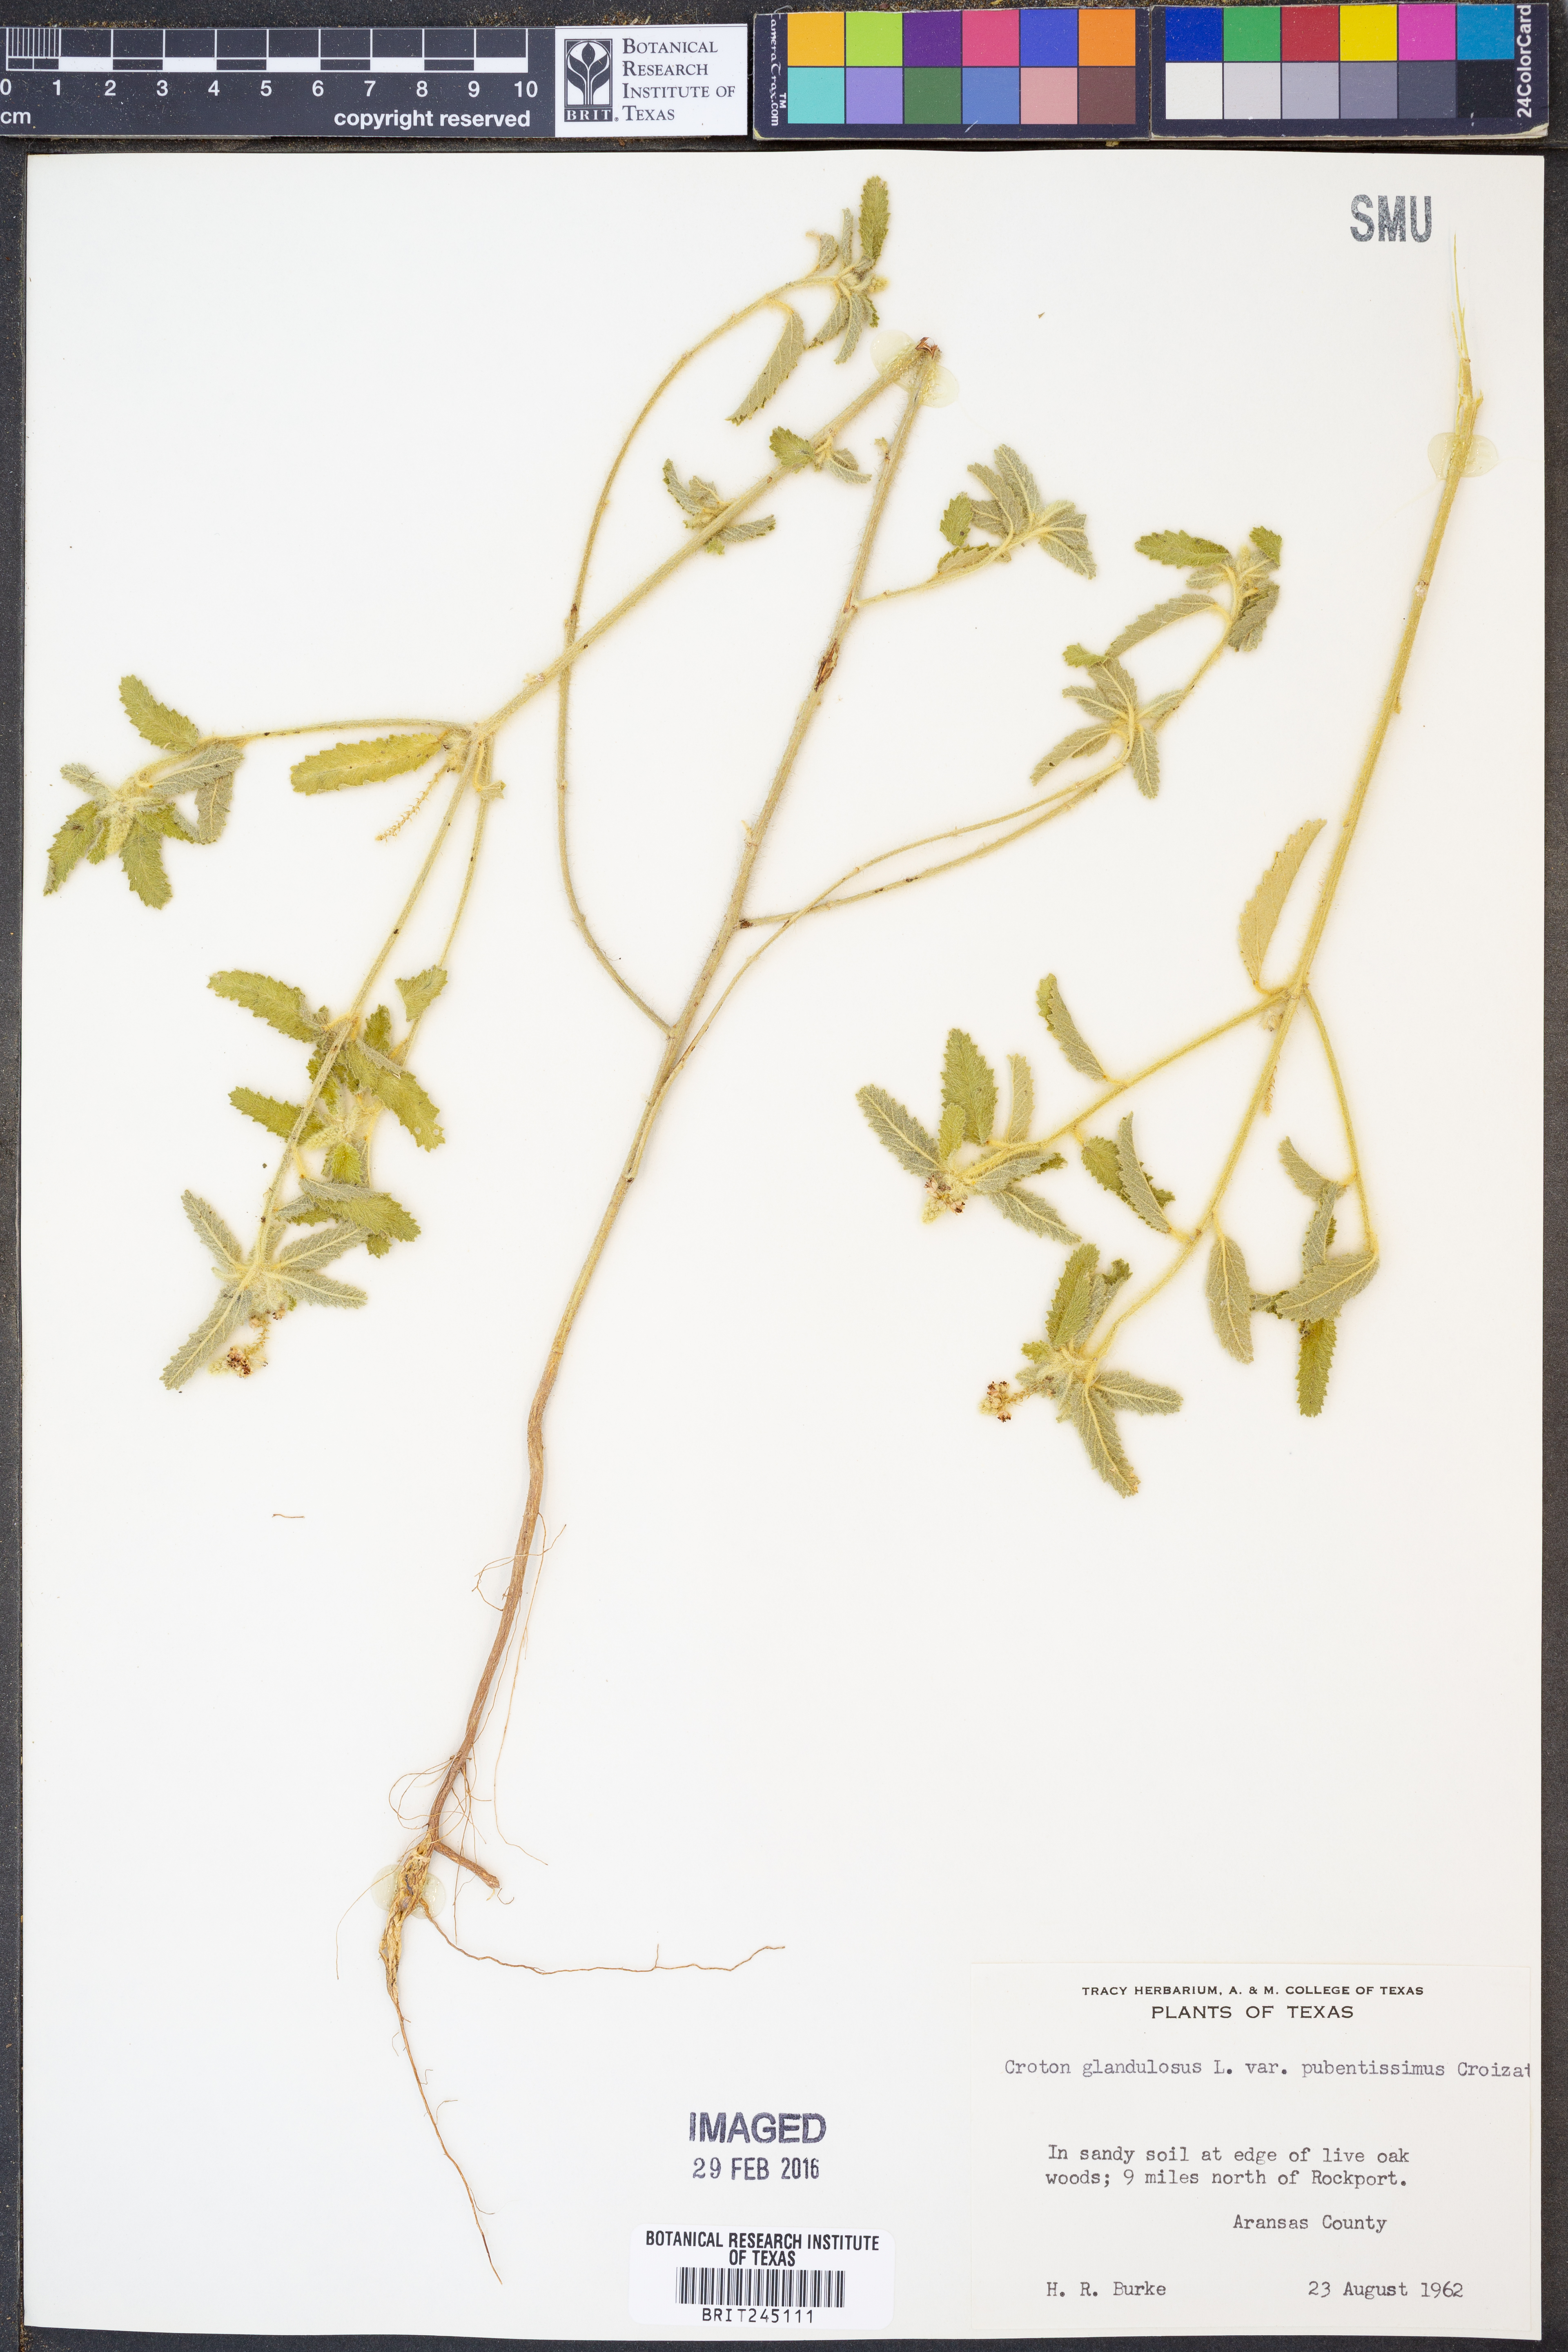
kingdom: Plantae
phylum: Tracheophyta
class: Magnoliopsida
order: Malpighiales
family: Euphorbiaceae
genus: Croton
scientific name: Croton glandulosus
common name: Tropic croton
